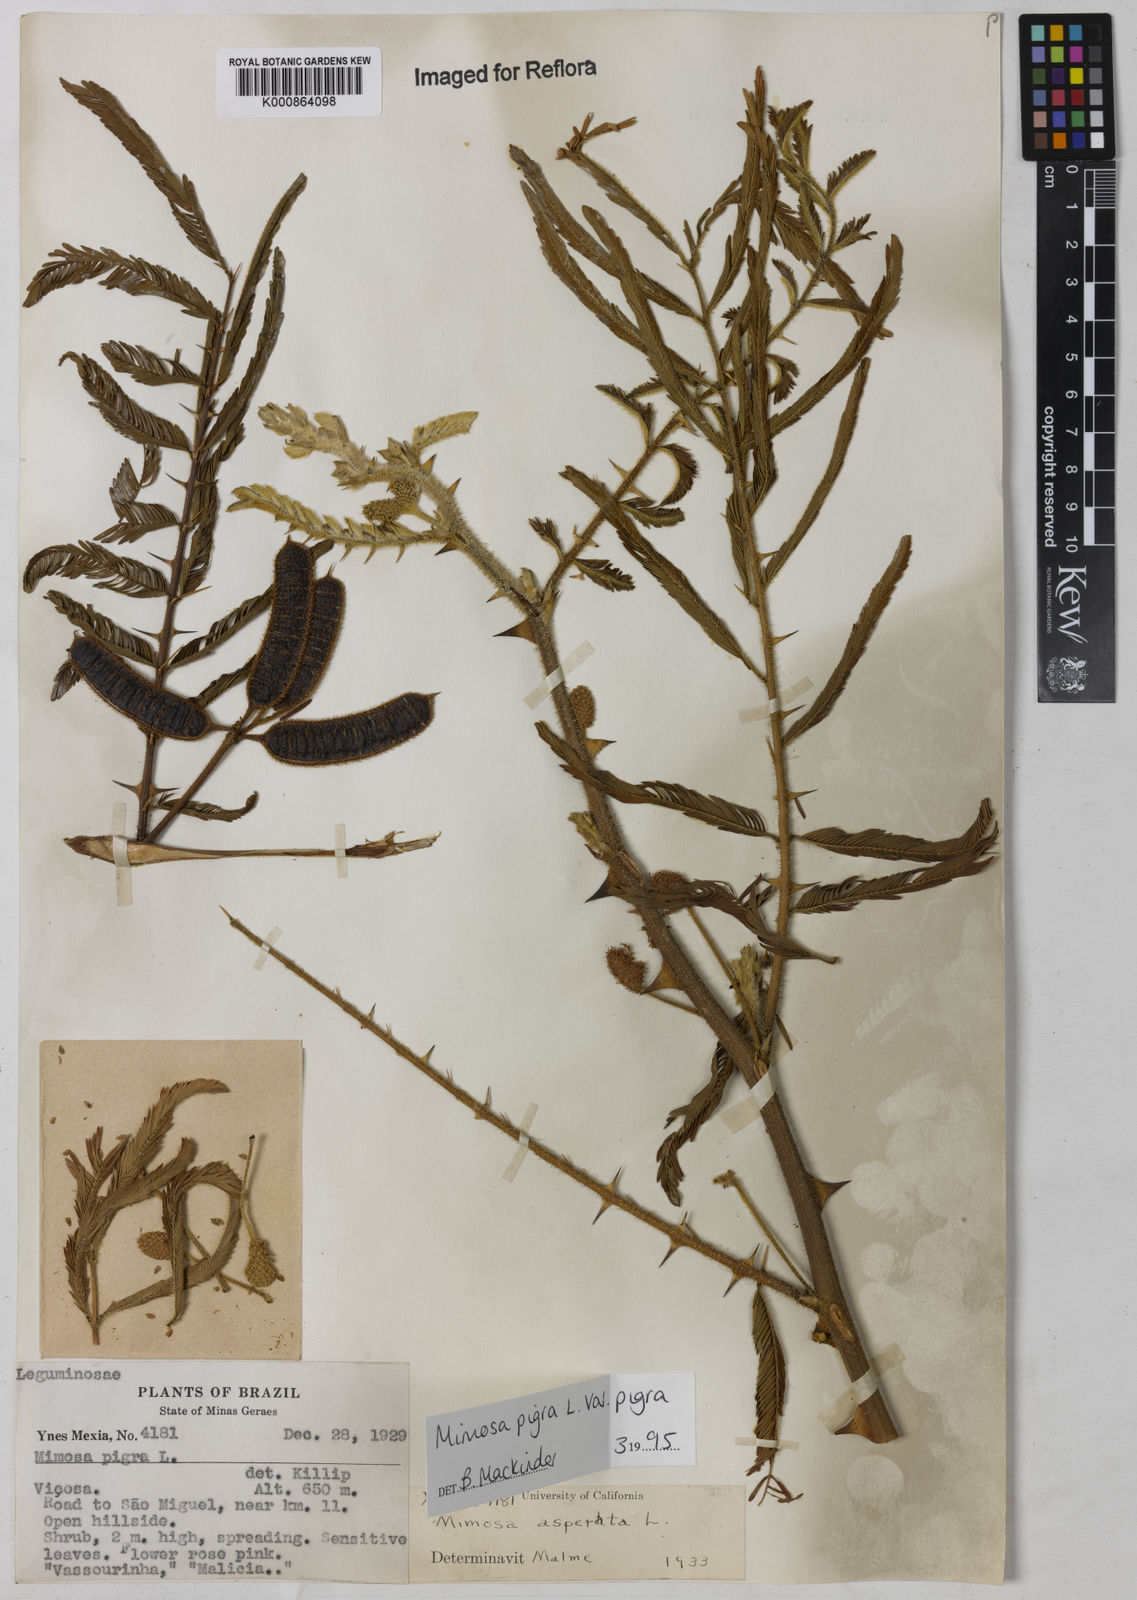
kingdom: Plantae
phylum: Tracheophyta
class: Magnoliopsida
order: Fabales
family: Fabaceae
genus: Mimosa
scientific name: Mimosa pigra
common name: Black mimosa
